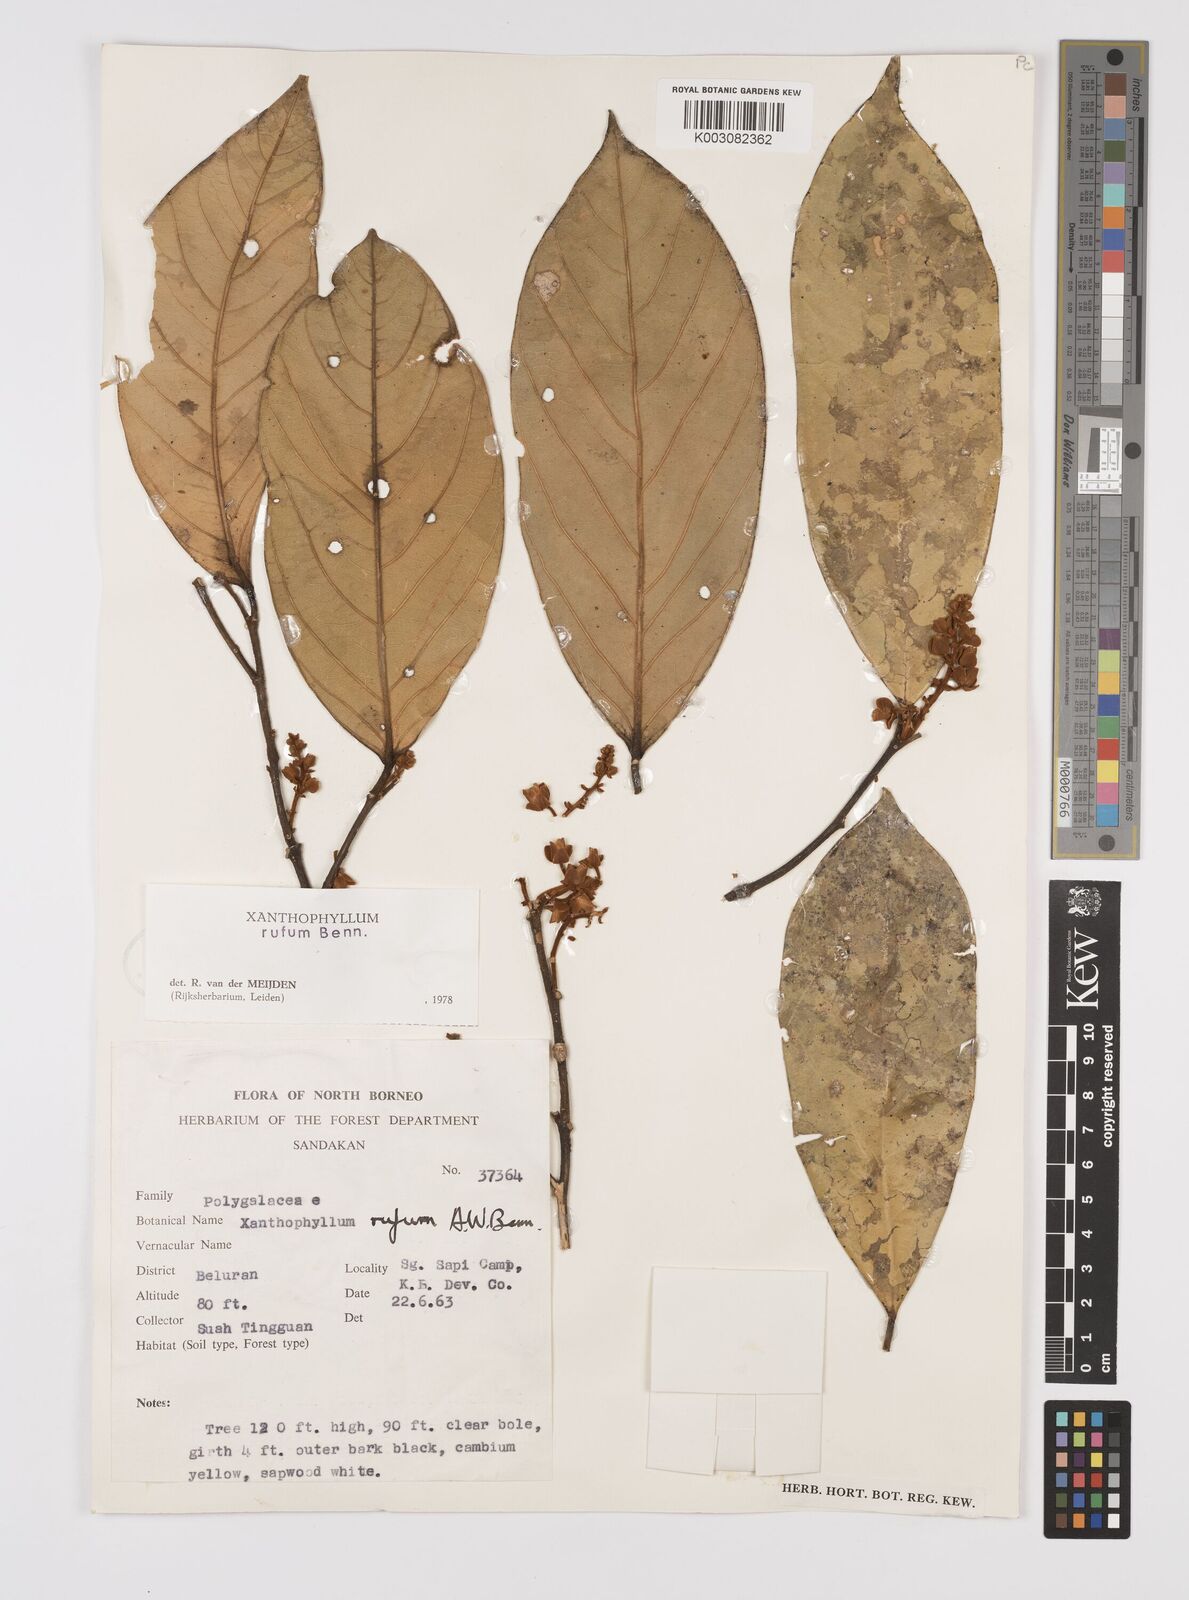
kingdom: Plantae
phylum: Tracheophyta
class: Magnoliopsida
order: Fabales
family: Polygalaceae
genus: Xanthophyllum
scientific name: Xanthophyllum rufum
